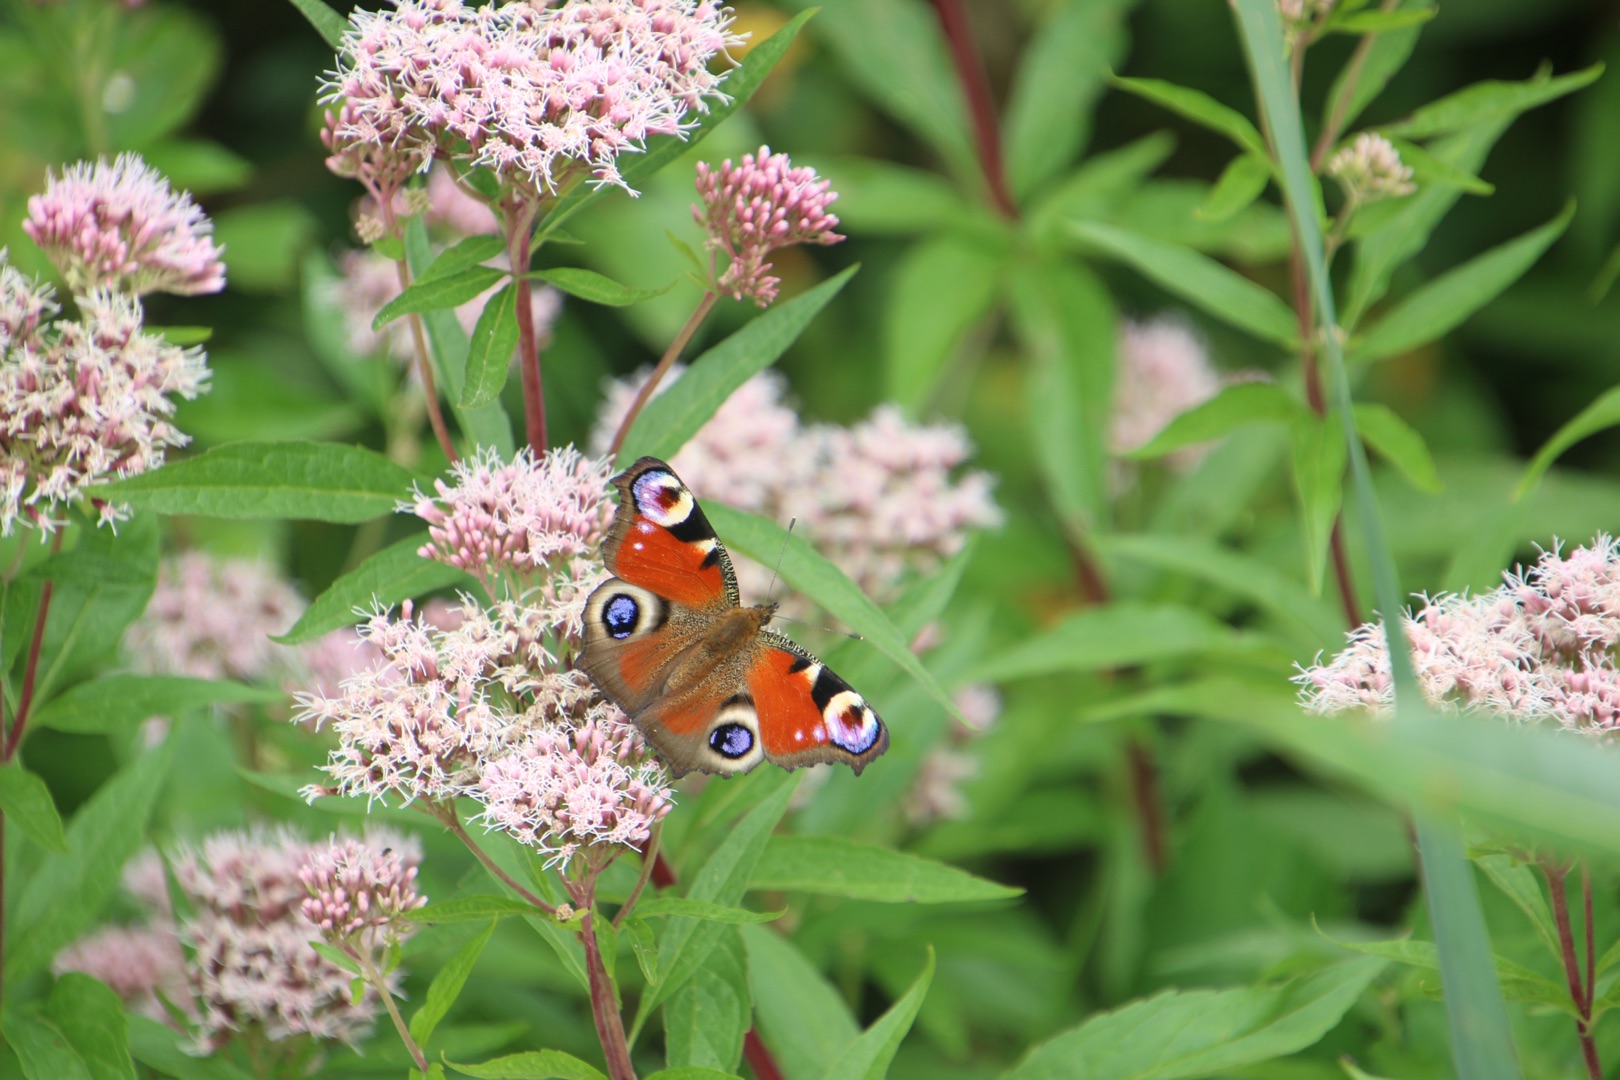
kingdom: Animalia
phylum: Arthropoda
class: Insecta
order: Lepidoptera
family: Nymphalidae
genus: Aglais
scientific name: Aglais io
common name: Dagpåfugleøje
